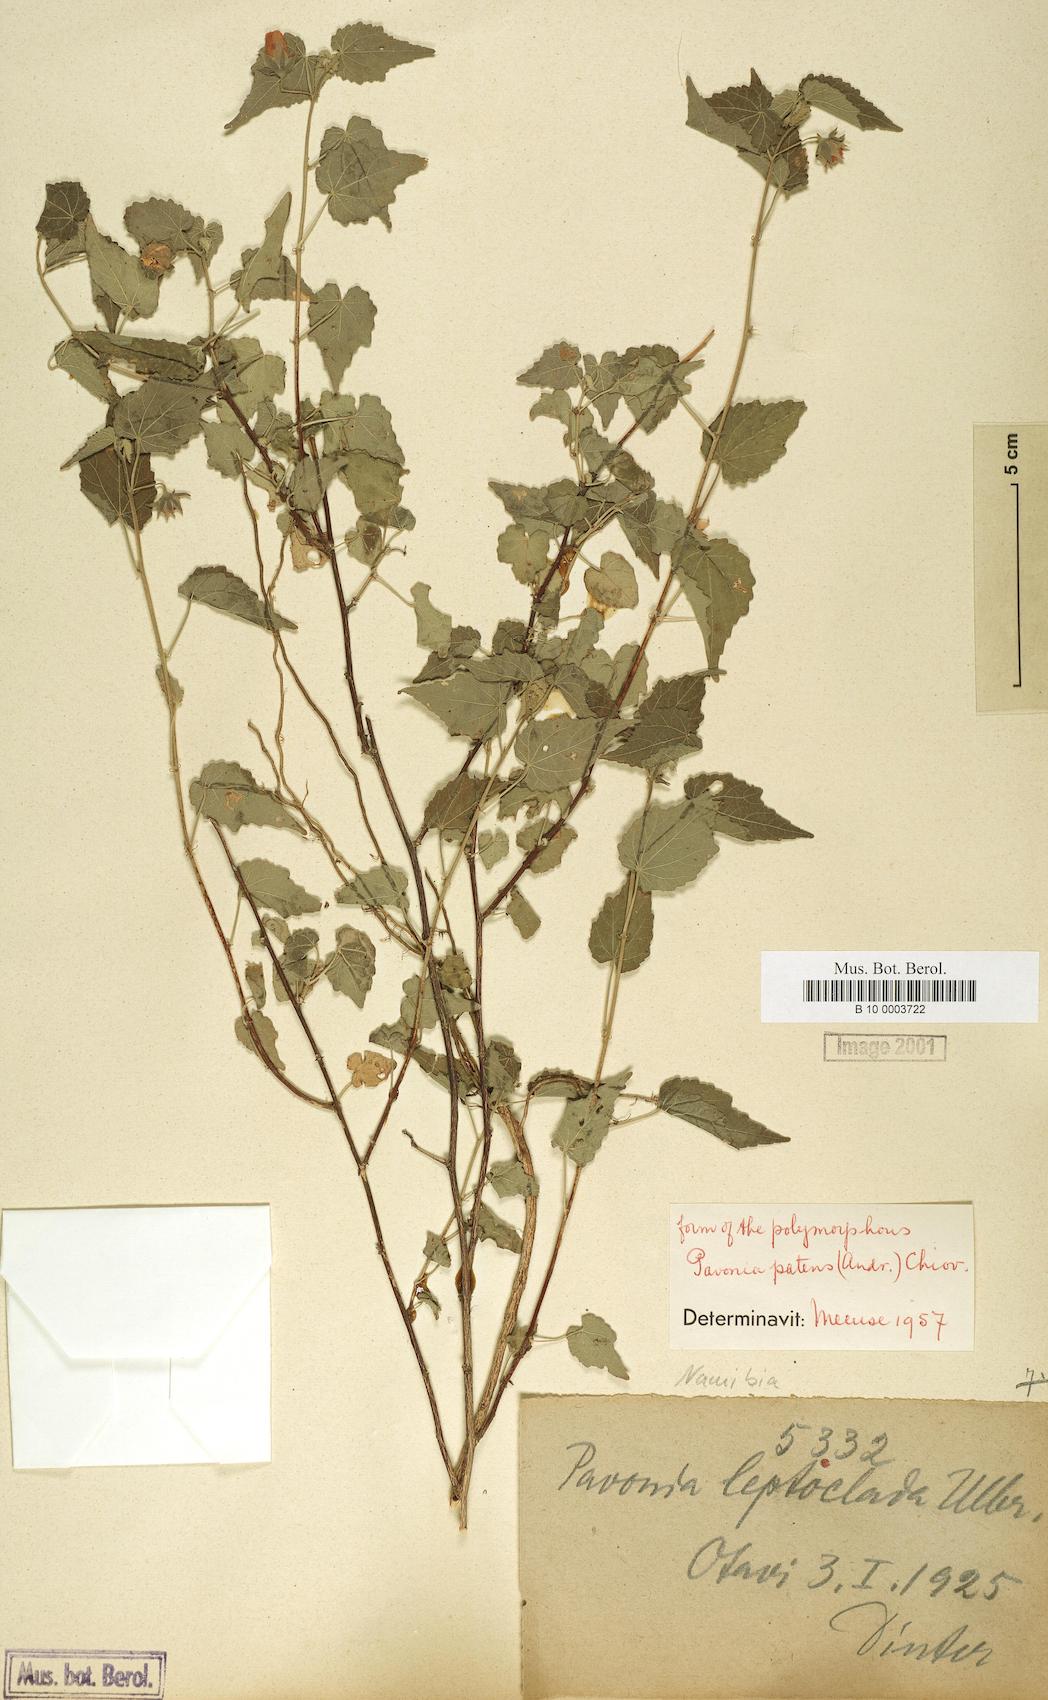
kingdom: Plantae
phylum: Tracheophyta
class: Magnoliopsida
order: Malvales
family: Malvaceae
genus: Abutilon
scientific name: Abutilon mauritianum
